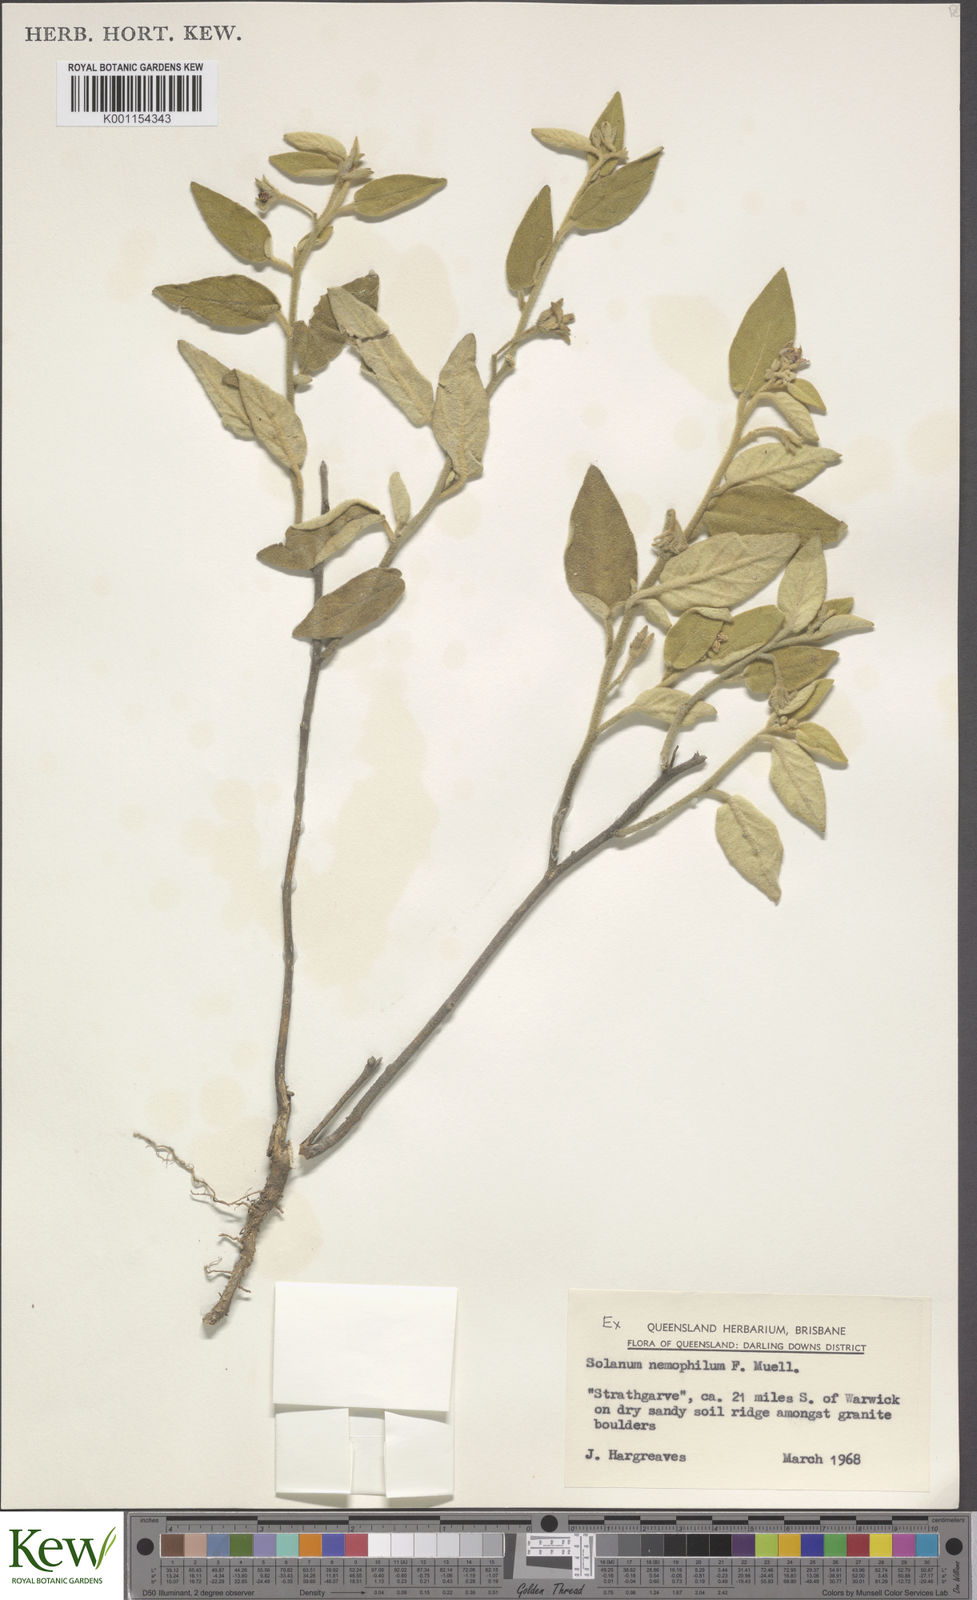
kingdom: Plantae
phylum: Tracheophyta
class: Magnoliopsida
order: Solanales
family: Solanaceae
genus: Solanum
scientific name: Solanum nemophilum
